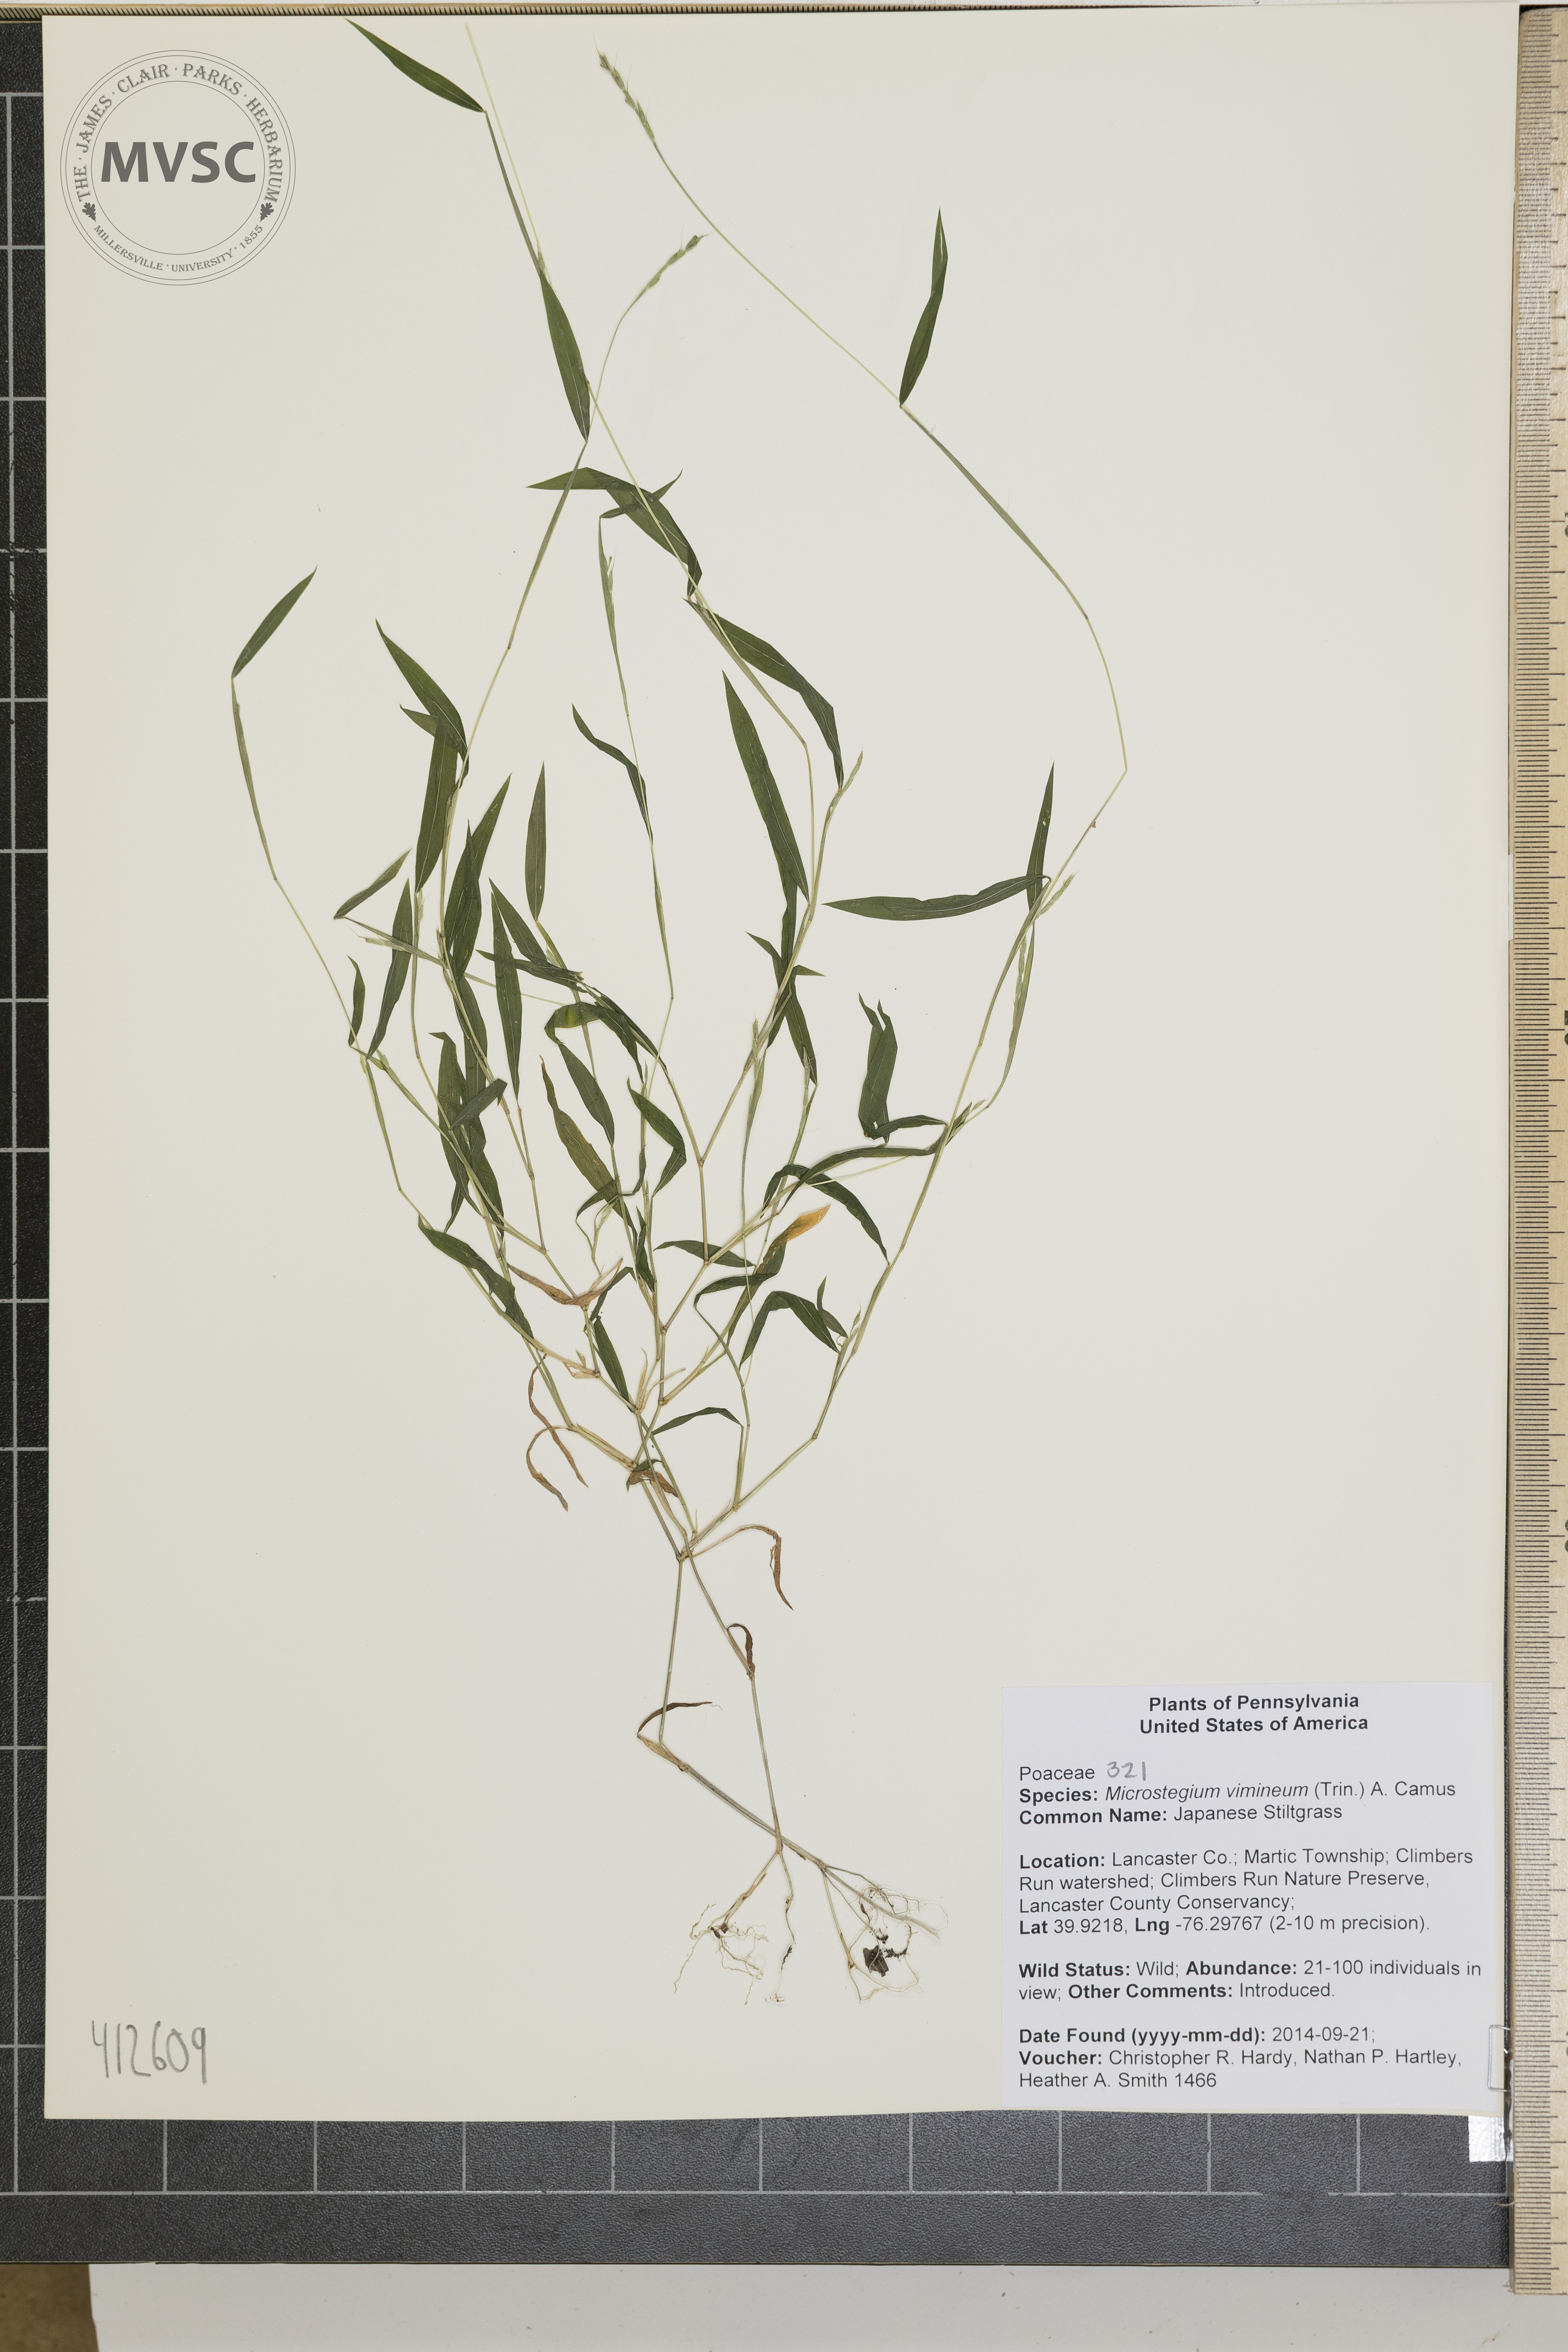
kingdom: Plantae
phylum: Tracheophyta
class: Liliopsida
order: Poales
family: Poaceae
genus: Microstegium
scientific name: Microstegium vimineum
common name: Japanese stiltgrass
